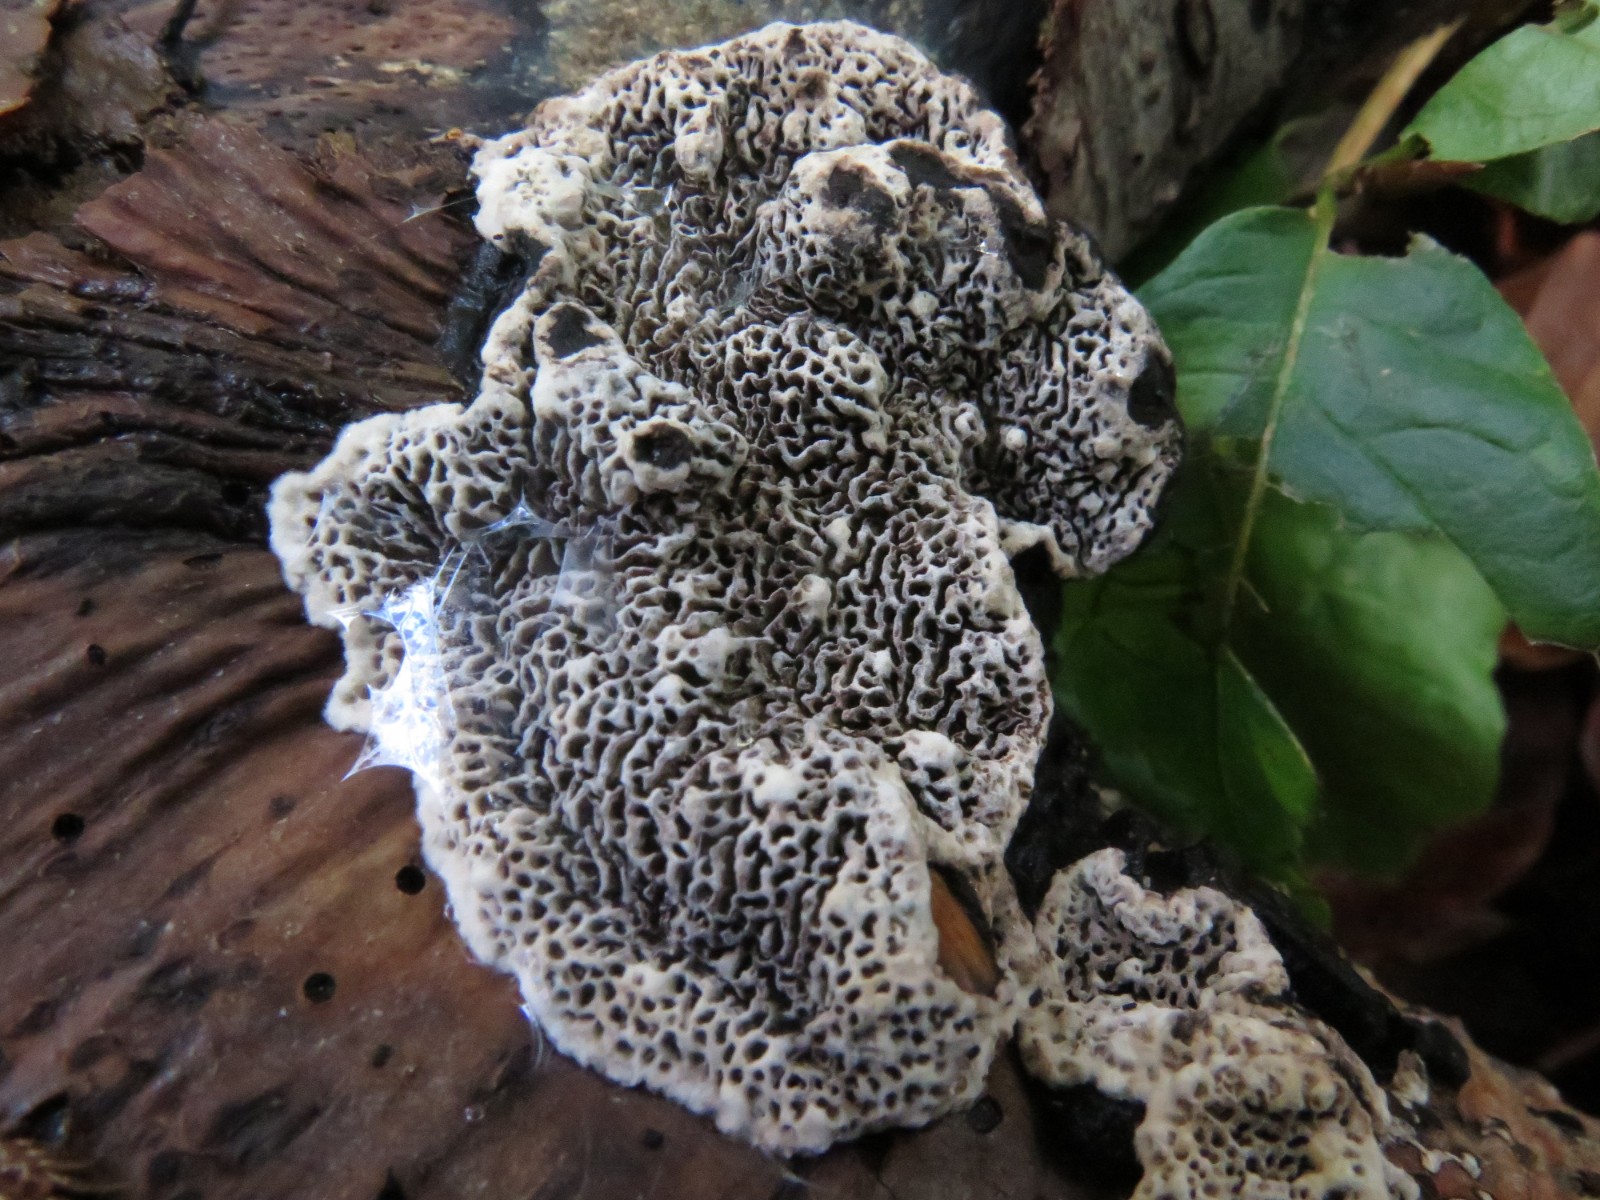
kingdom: Fungi
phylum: Basidiomycota
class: Agaricomycetes
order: Polyporales
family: Polyporaceae
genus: Podofomes
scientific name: Podofomes mollis
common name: blød begporesvamp
